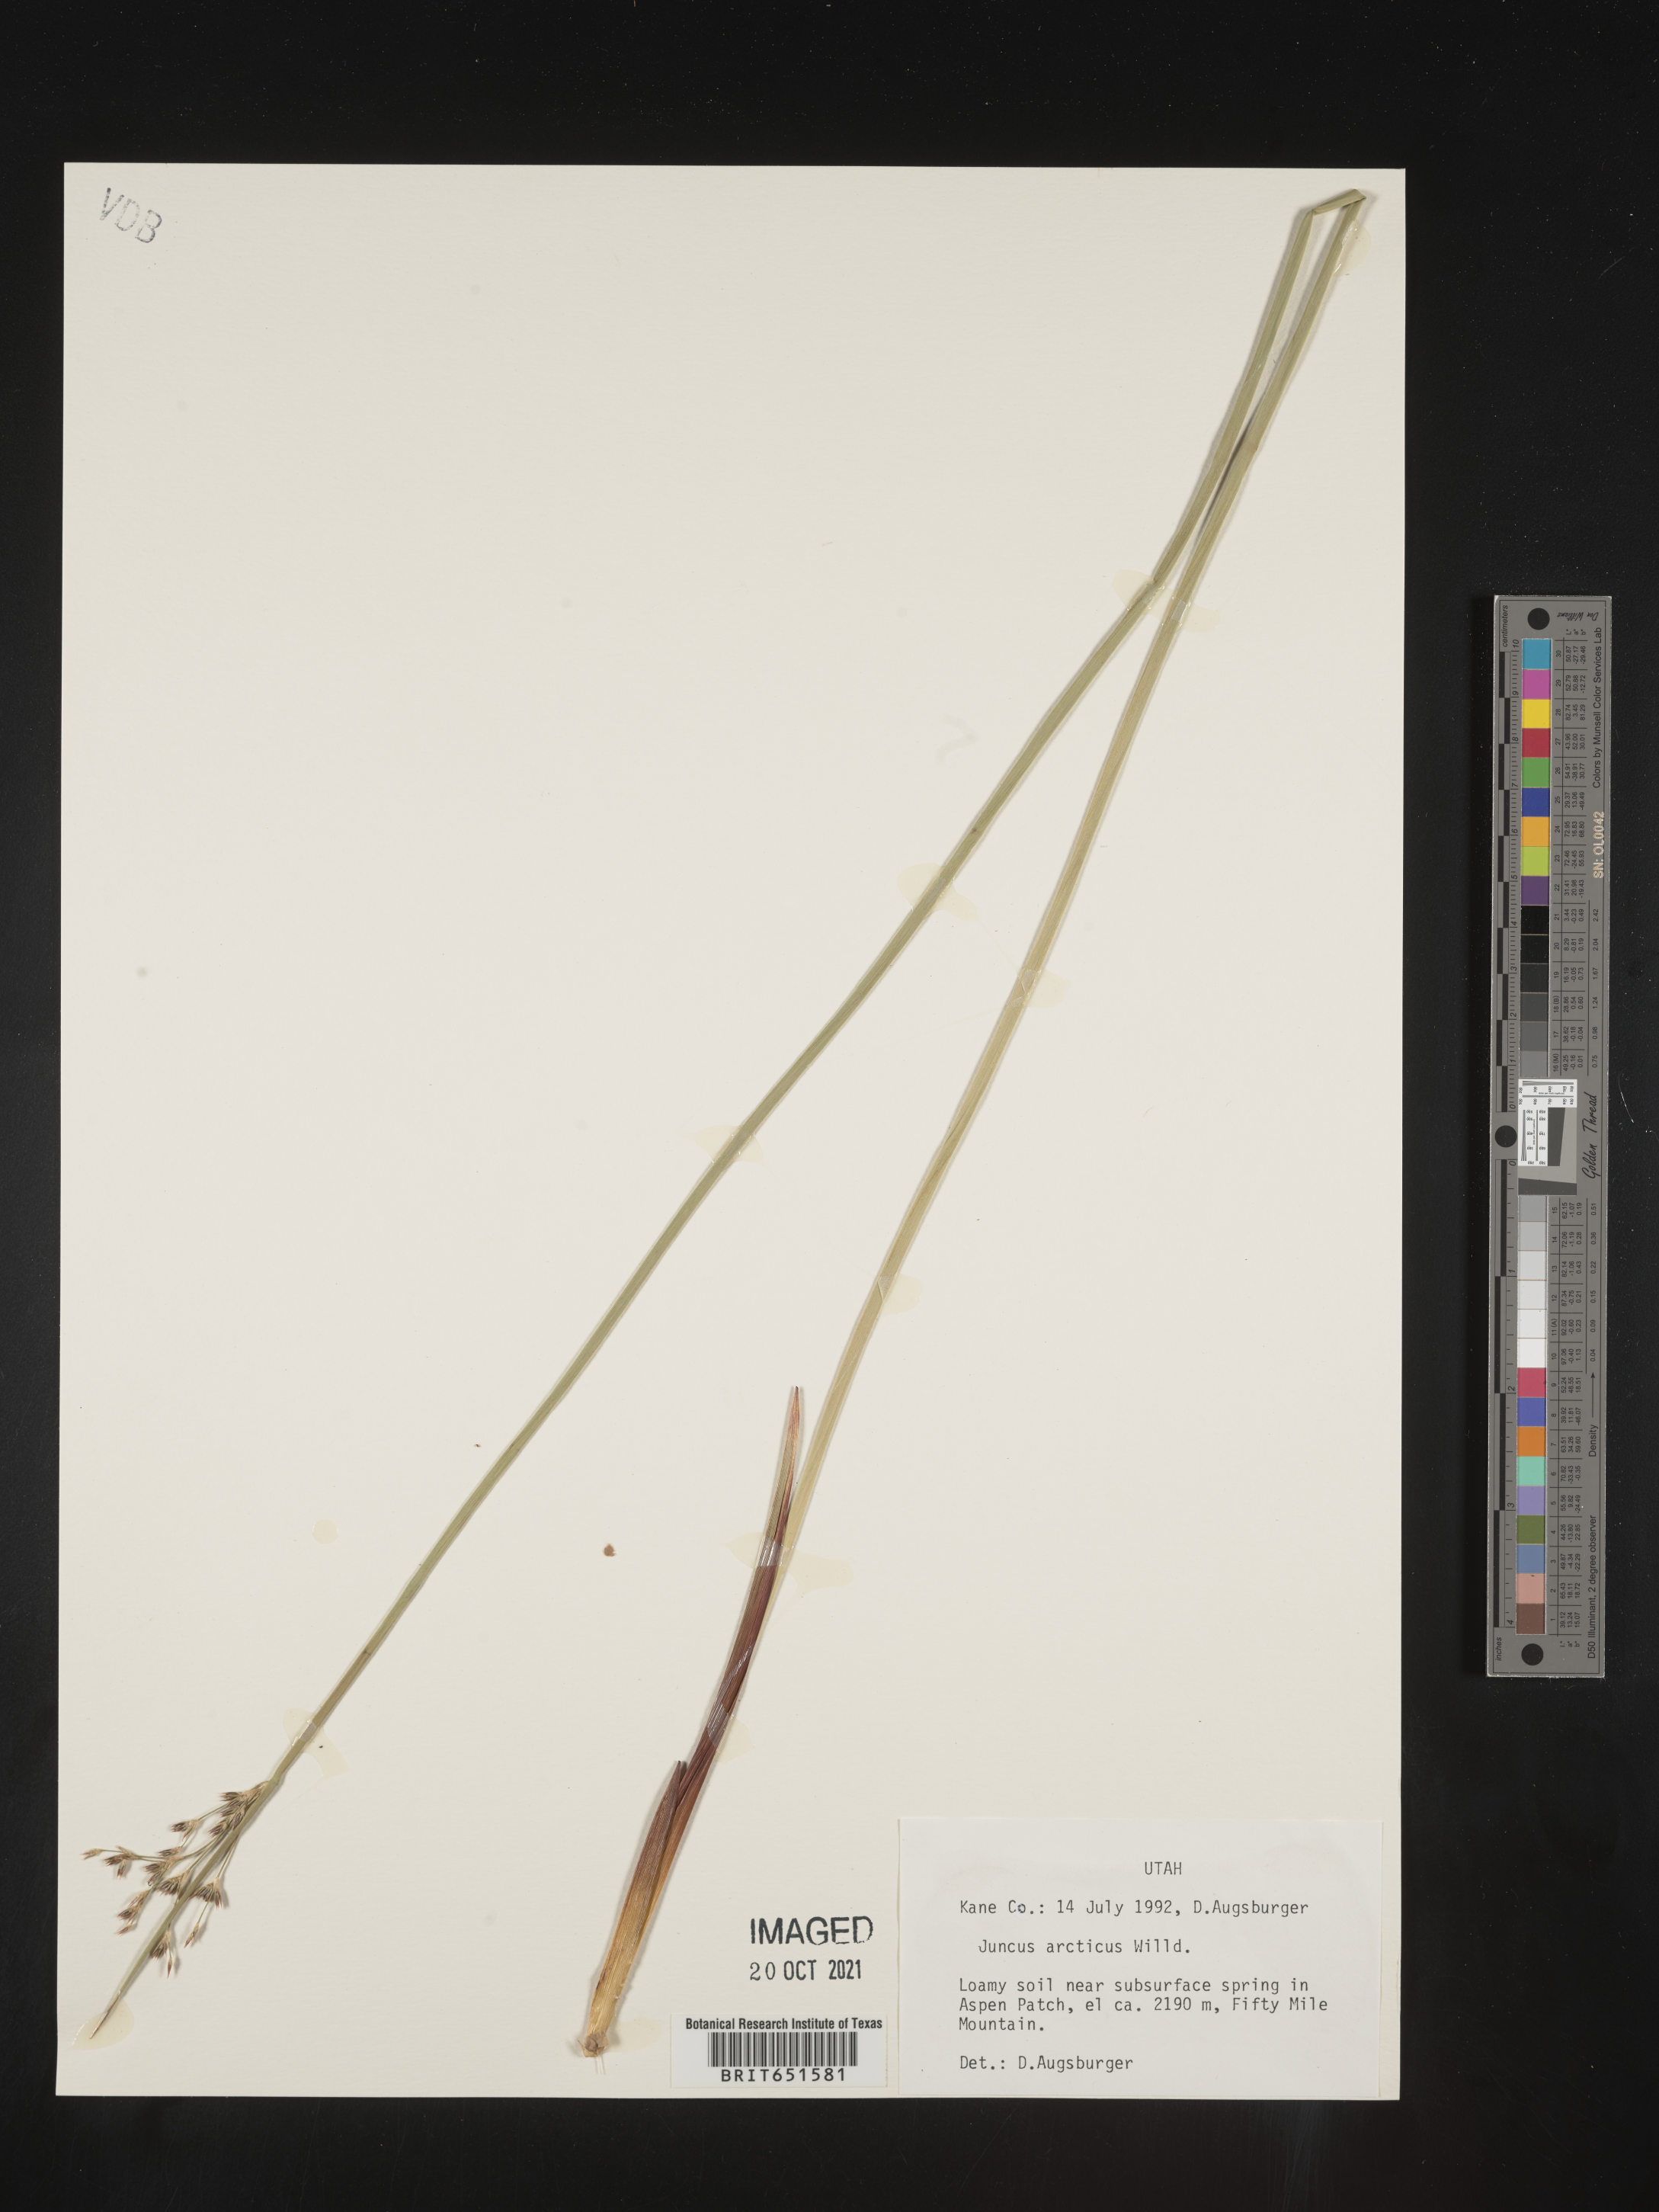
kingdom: Plantae
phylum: Tracheophyta
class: Liliopsida
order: Poales
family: Juncaceae
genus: Juncus
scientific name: Juncus arcticus
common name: Arctic rush
